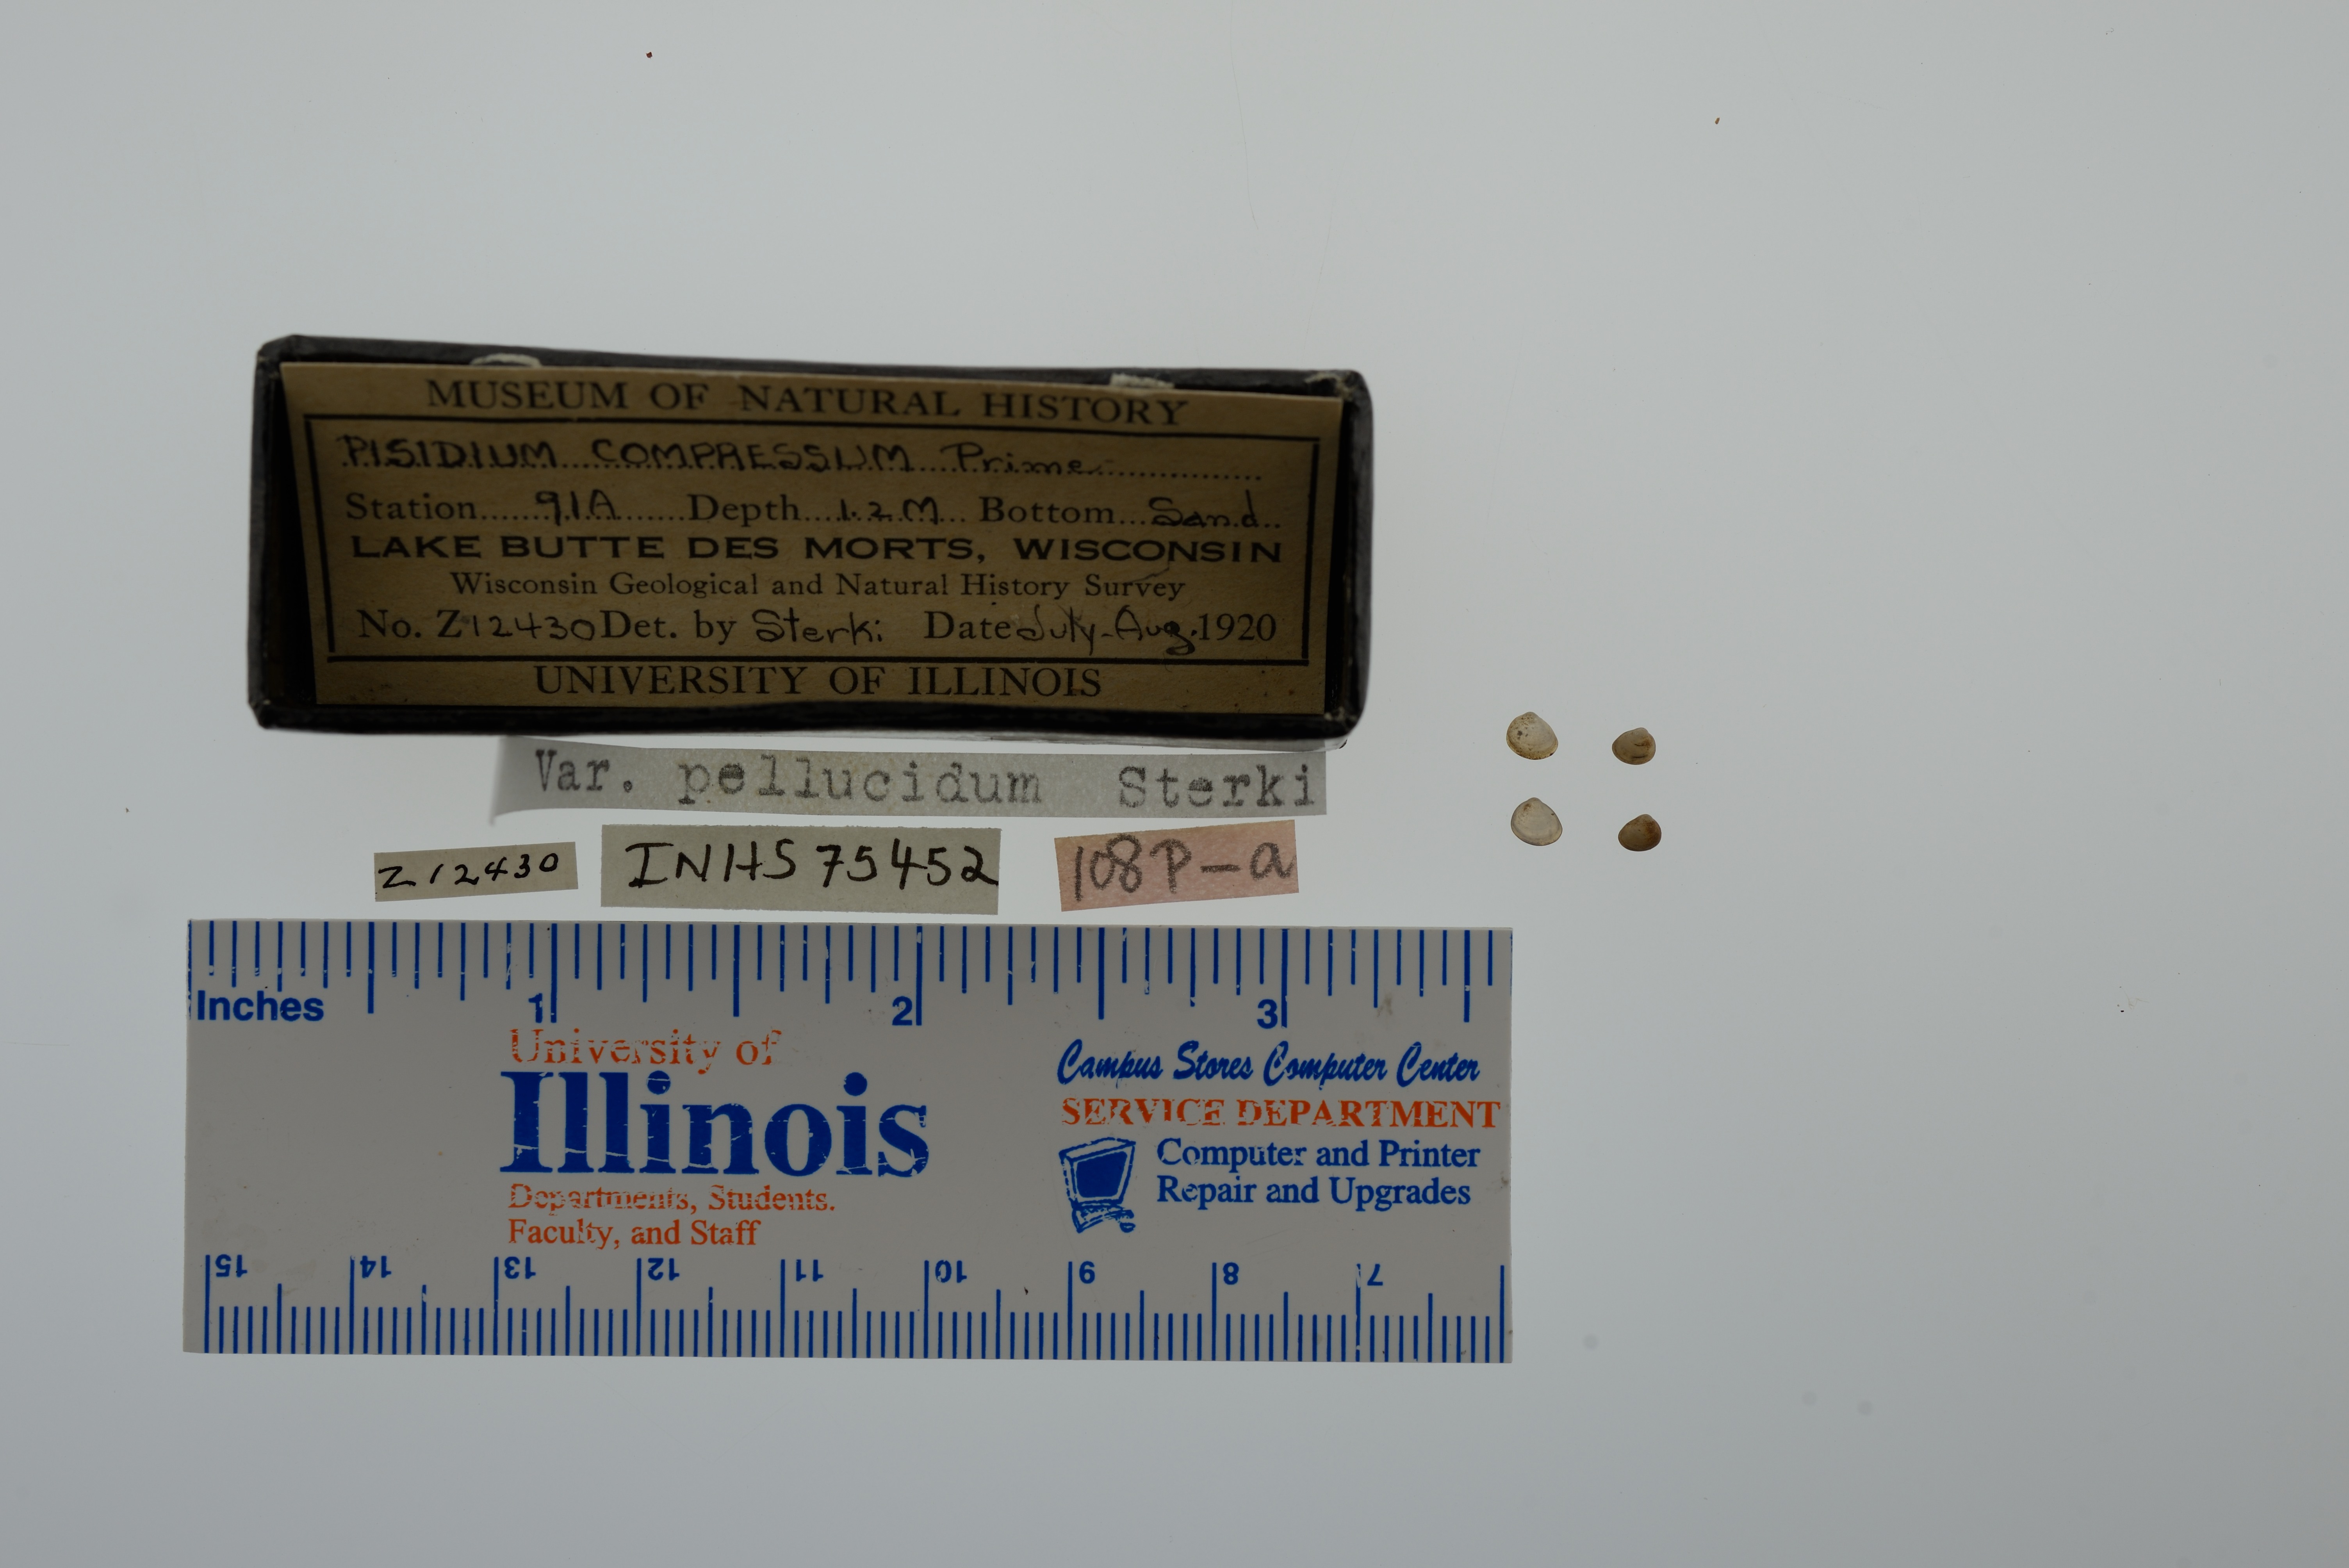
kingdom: Animalia
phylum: Mollusca
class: Bivalvia
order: Sphaeriida
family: Sphaeriidae
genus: Euglesa
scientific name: Euglesa compressa
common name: Ridgedbeak peaclam
